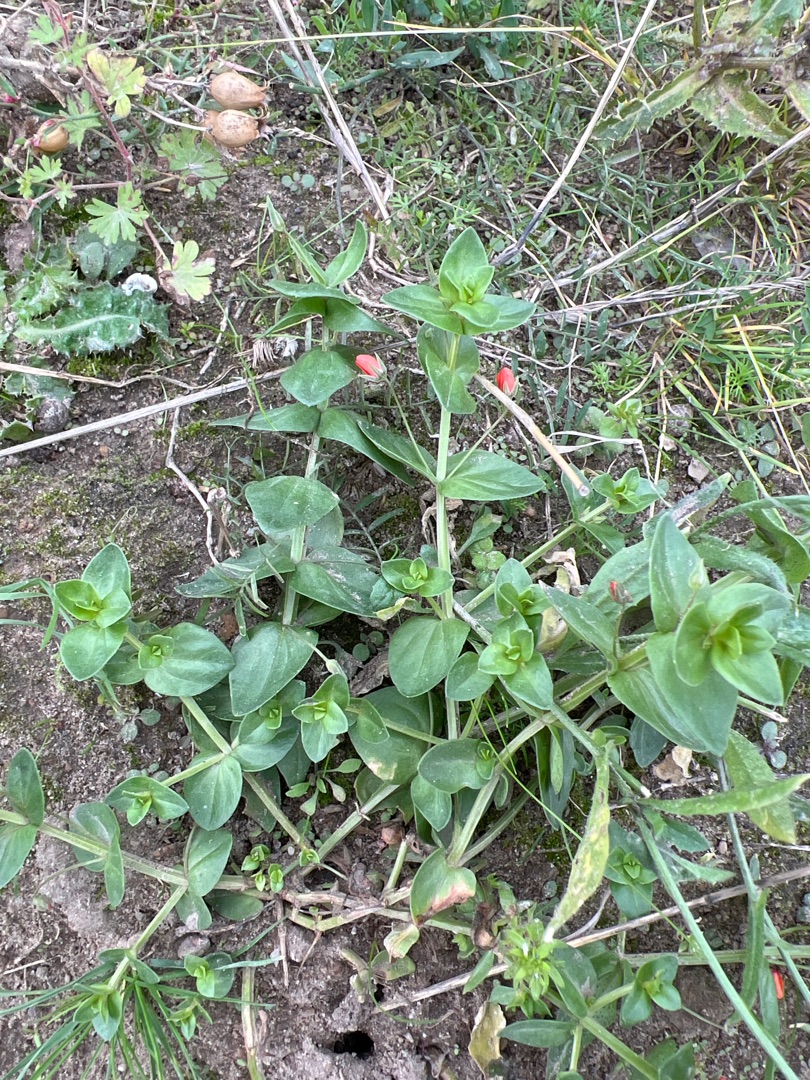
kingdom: Plantae
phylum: Tracheophyta
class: Magnoliopsida
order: Ericales
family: Primulaceae
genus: Lysimachia
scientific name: Lysimachia arvensis
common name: Rød arve
